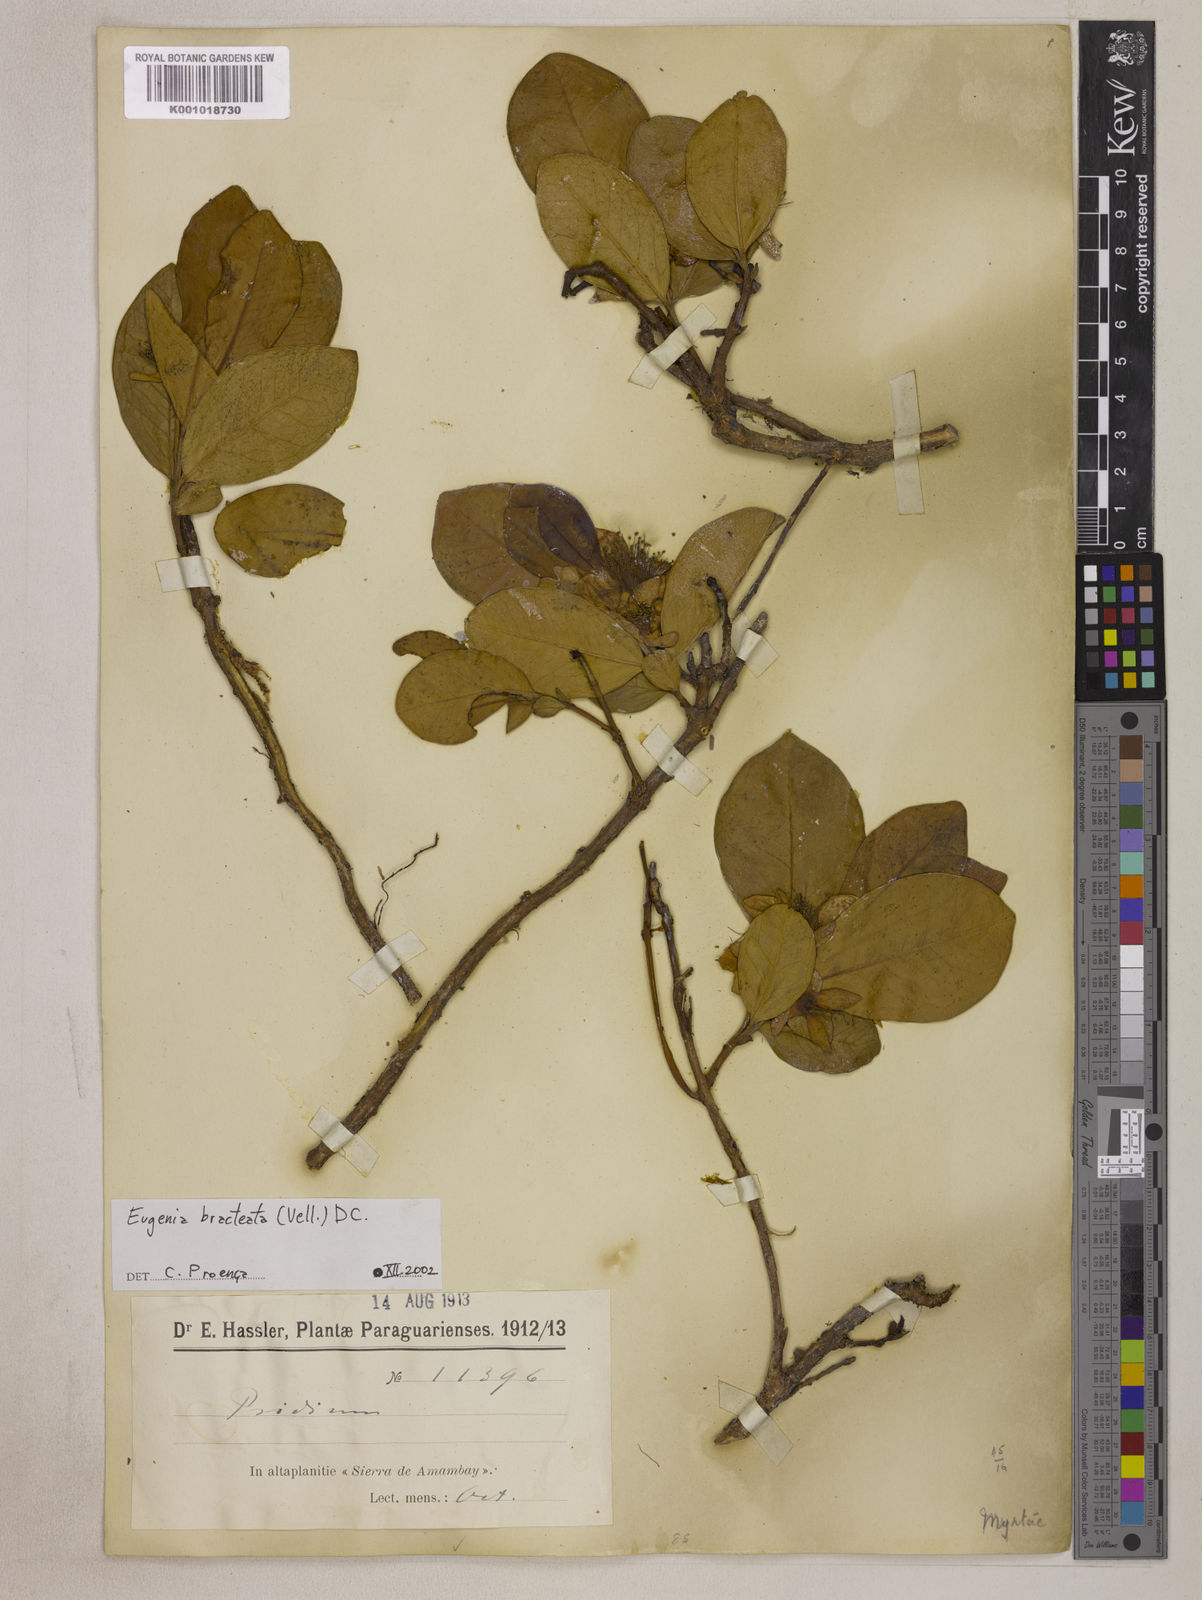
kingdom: Plantae
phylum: Tracheophyta
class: Magnoliopsida
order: Myrtales
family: Myrtaceae
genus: Eugenia
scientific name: Eugenia involucrata
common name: Cherry-of-the-rio grande
